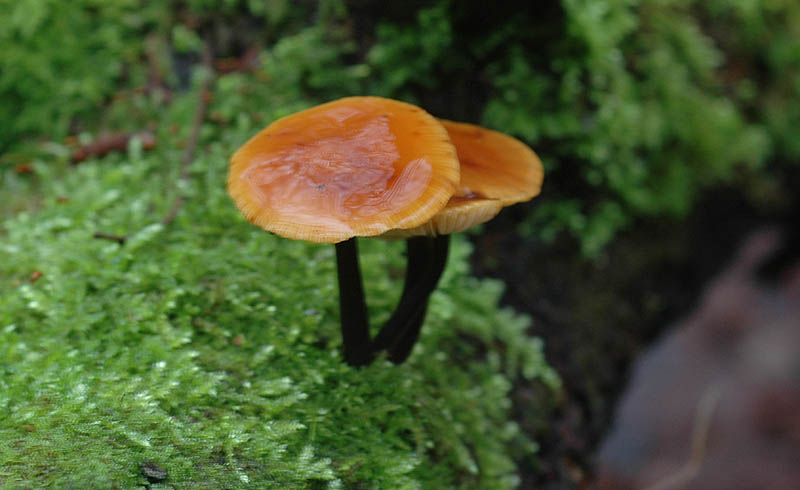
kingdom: Fungi
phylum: Basidiomycota
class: Agaricomycetes
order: Agaricales
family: Physalacriaceae
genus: Flammulina
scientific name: Flammulina elastica
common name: pile-fløjlsfod
